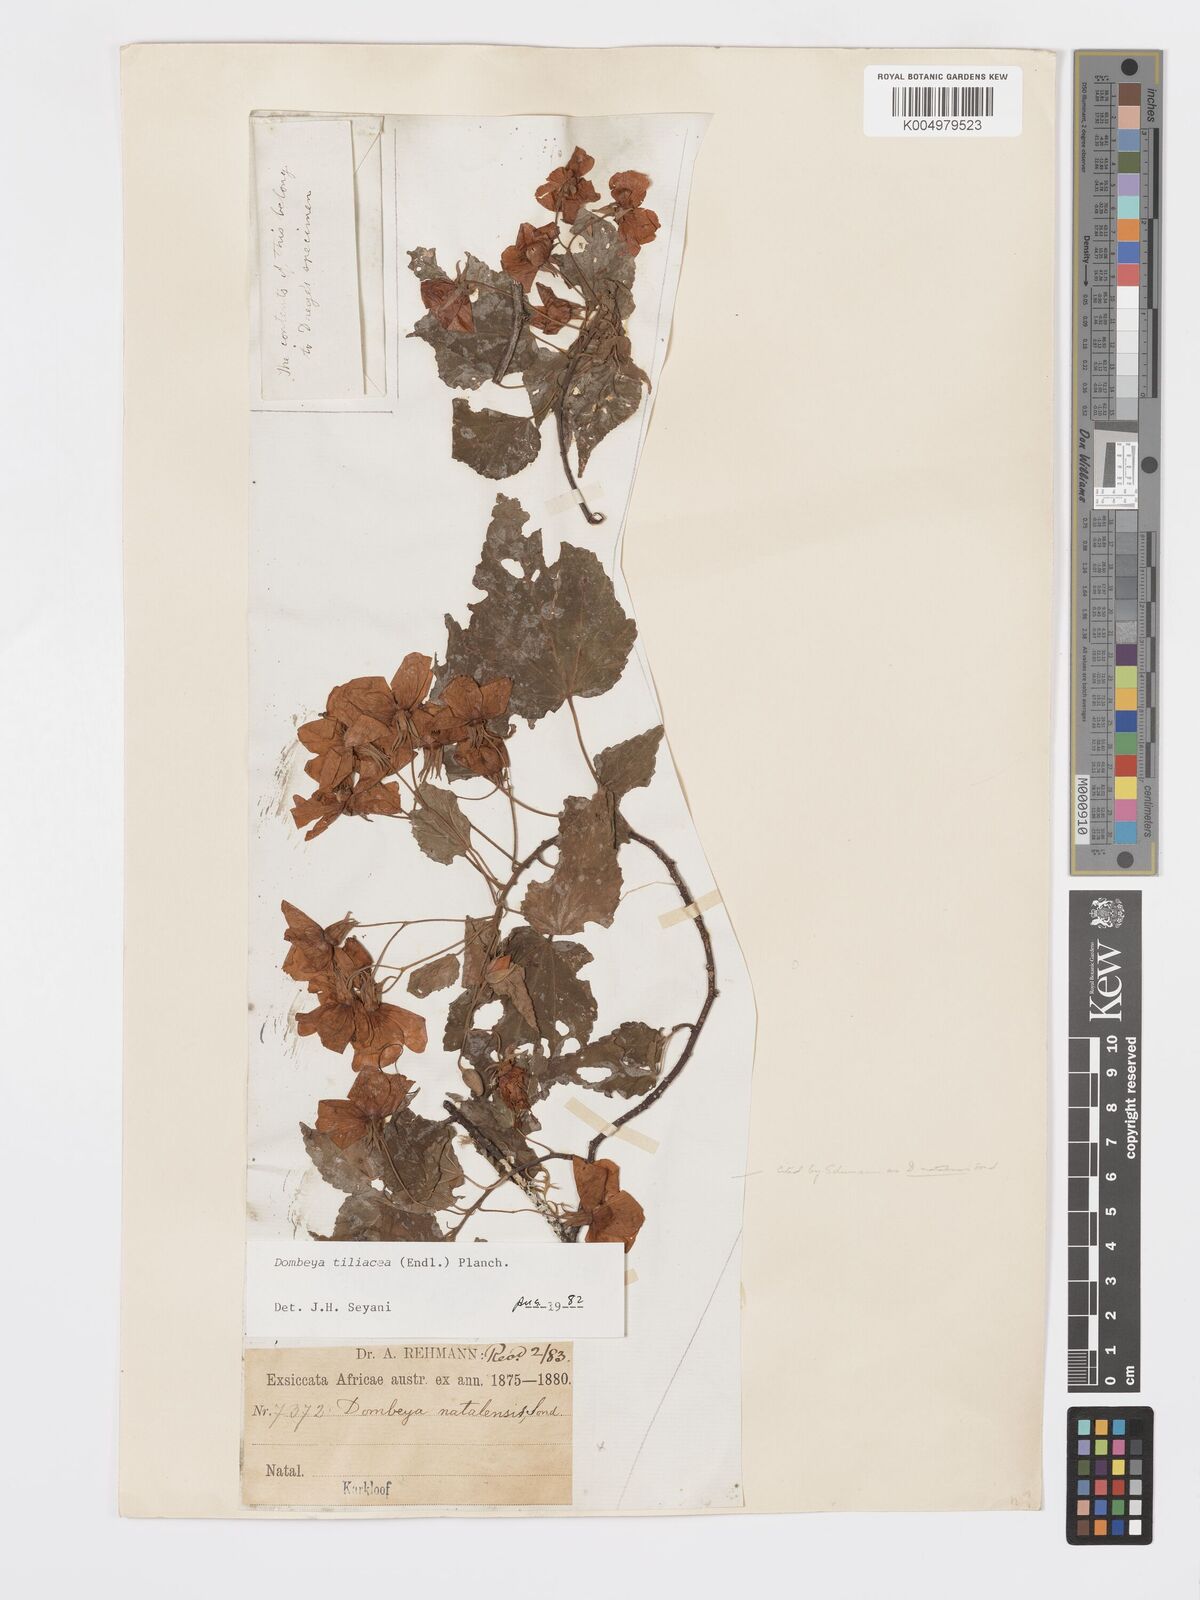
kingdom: Plantae
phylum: Tracheophyta
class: Magnoliopsida
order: Malvales
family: Malvaceae
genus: Dombeya
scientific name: Dombeya tiliacea
